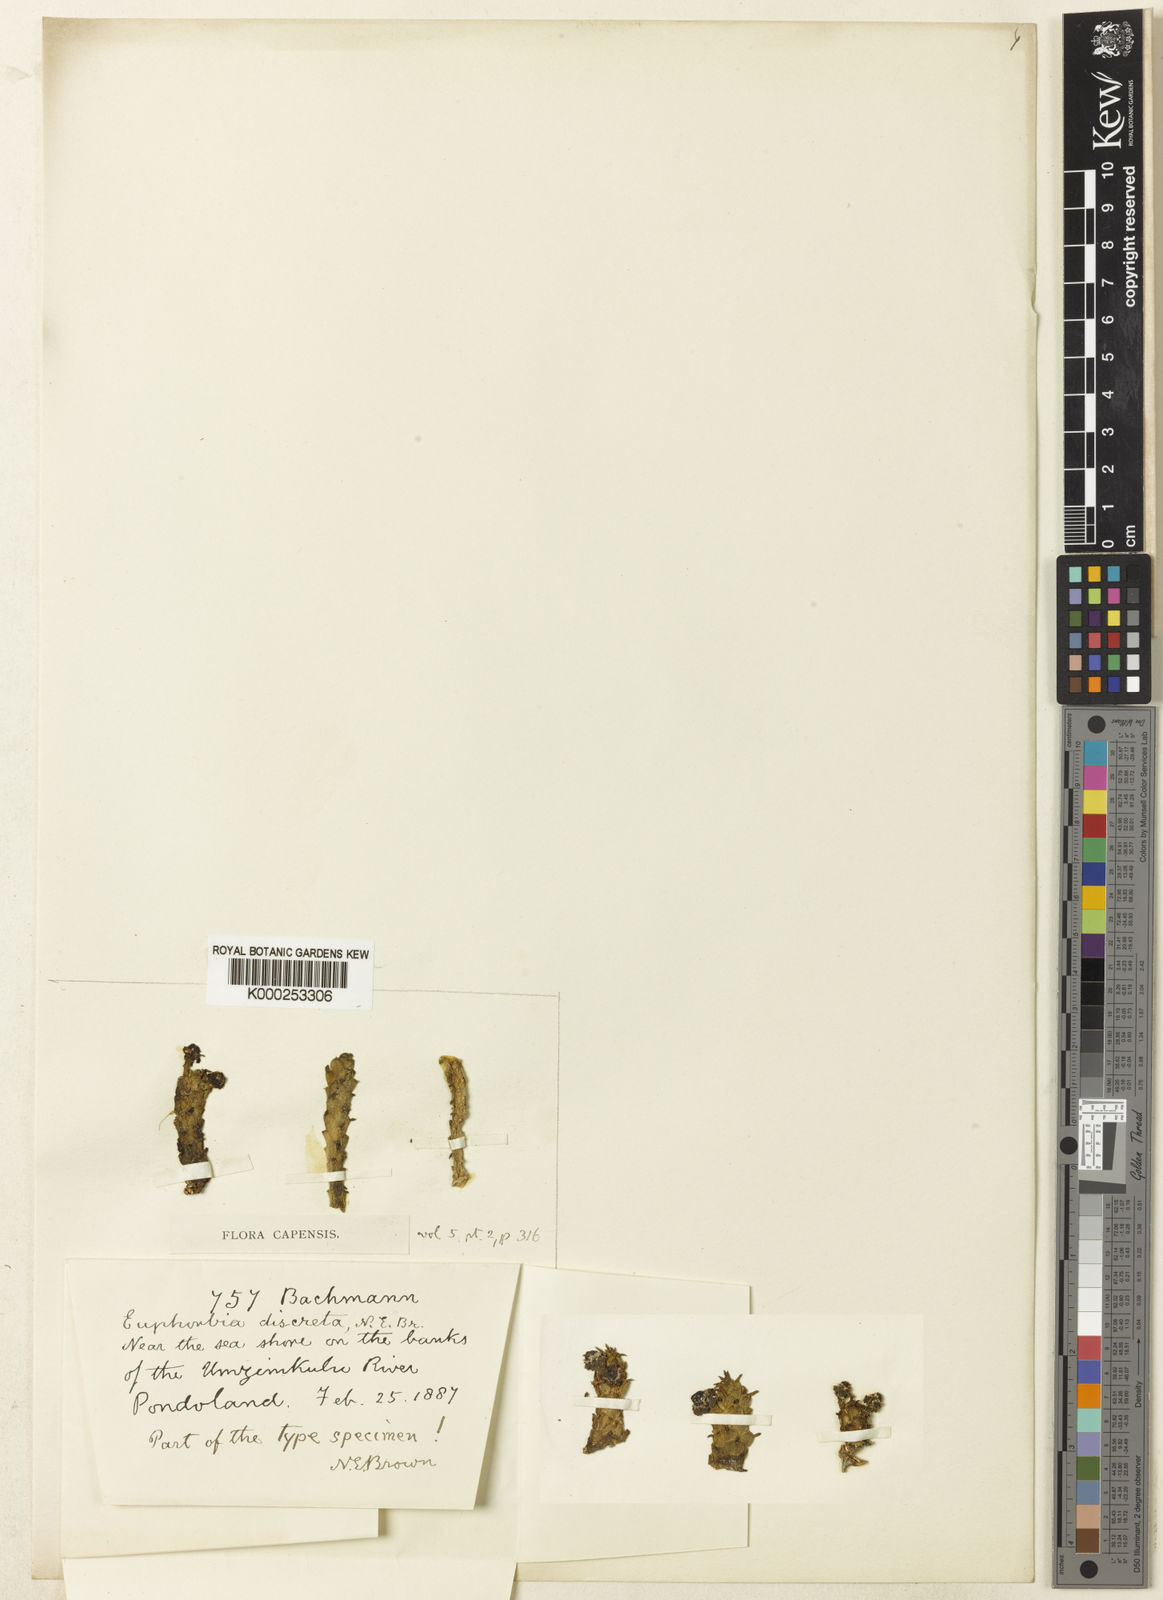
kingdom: Plantae
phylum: Tracheophyta
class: Magnoliopsida
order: Malpighiales
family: Euphorbiaceae
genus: Euphorbia
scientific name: Euphorbia flanaganii
